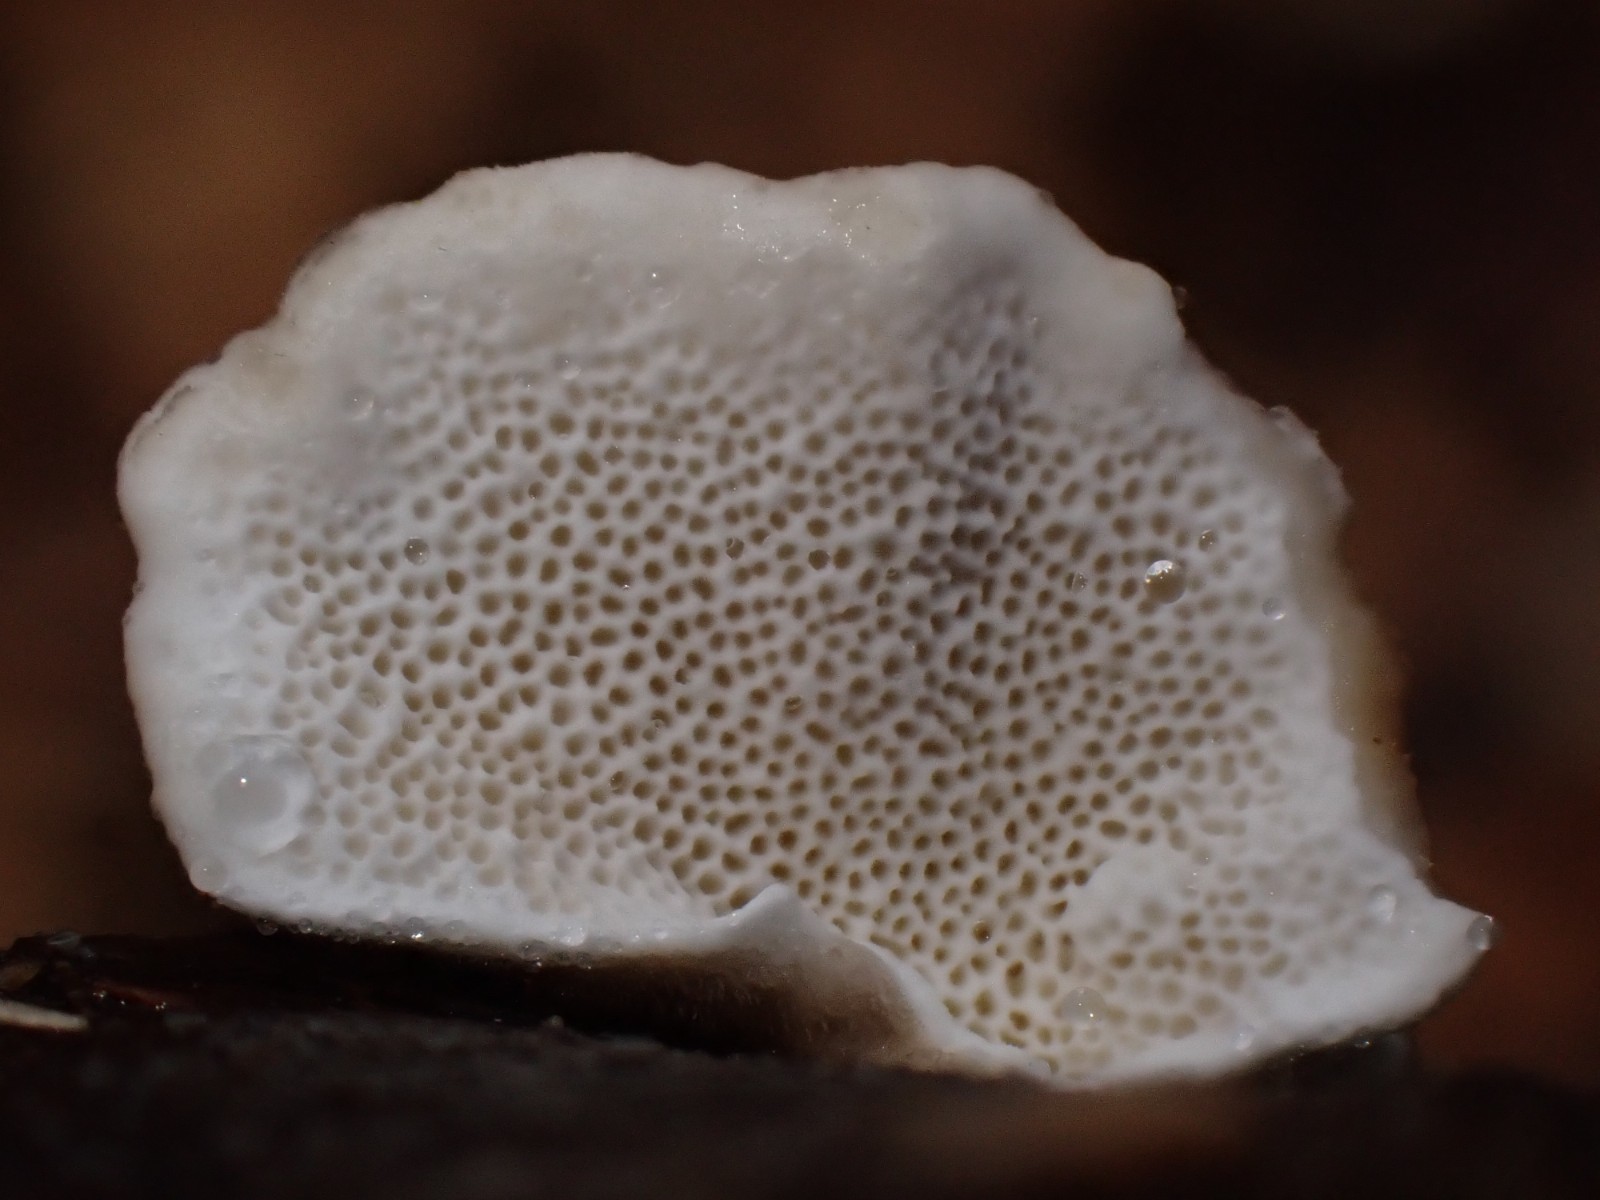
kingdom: Fungi
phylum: Basidiomycota
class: Agaricomycetes
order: Polyporales
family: Polyporaceae
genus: Trametes
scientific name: Trametes versicolor
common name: broget læderporesvamp
